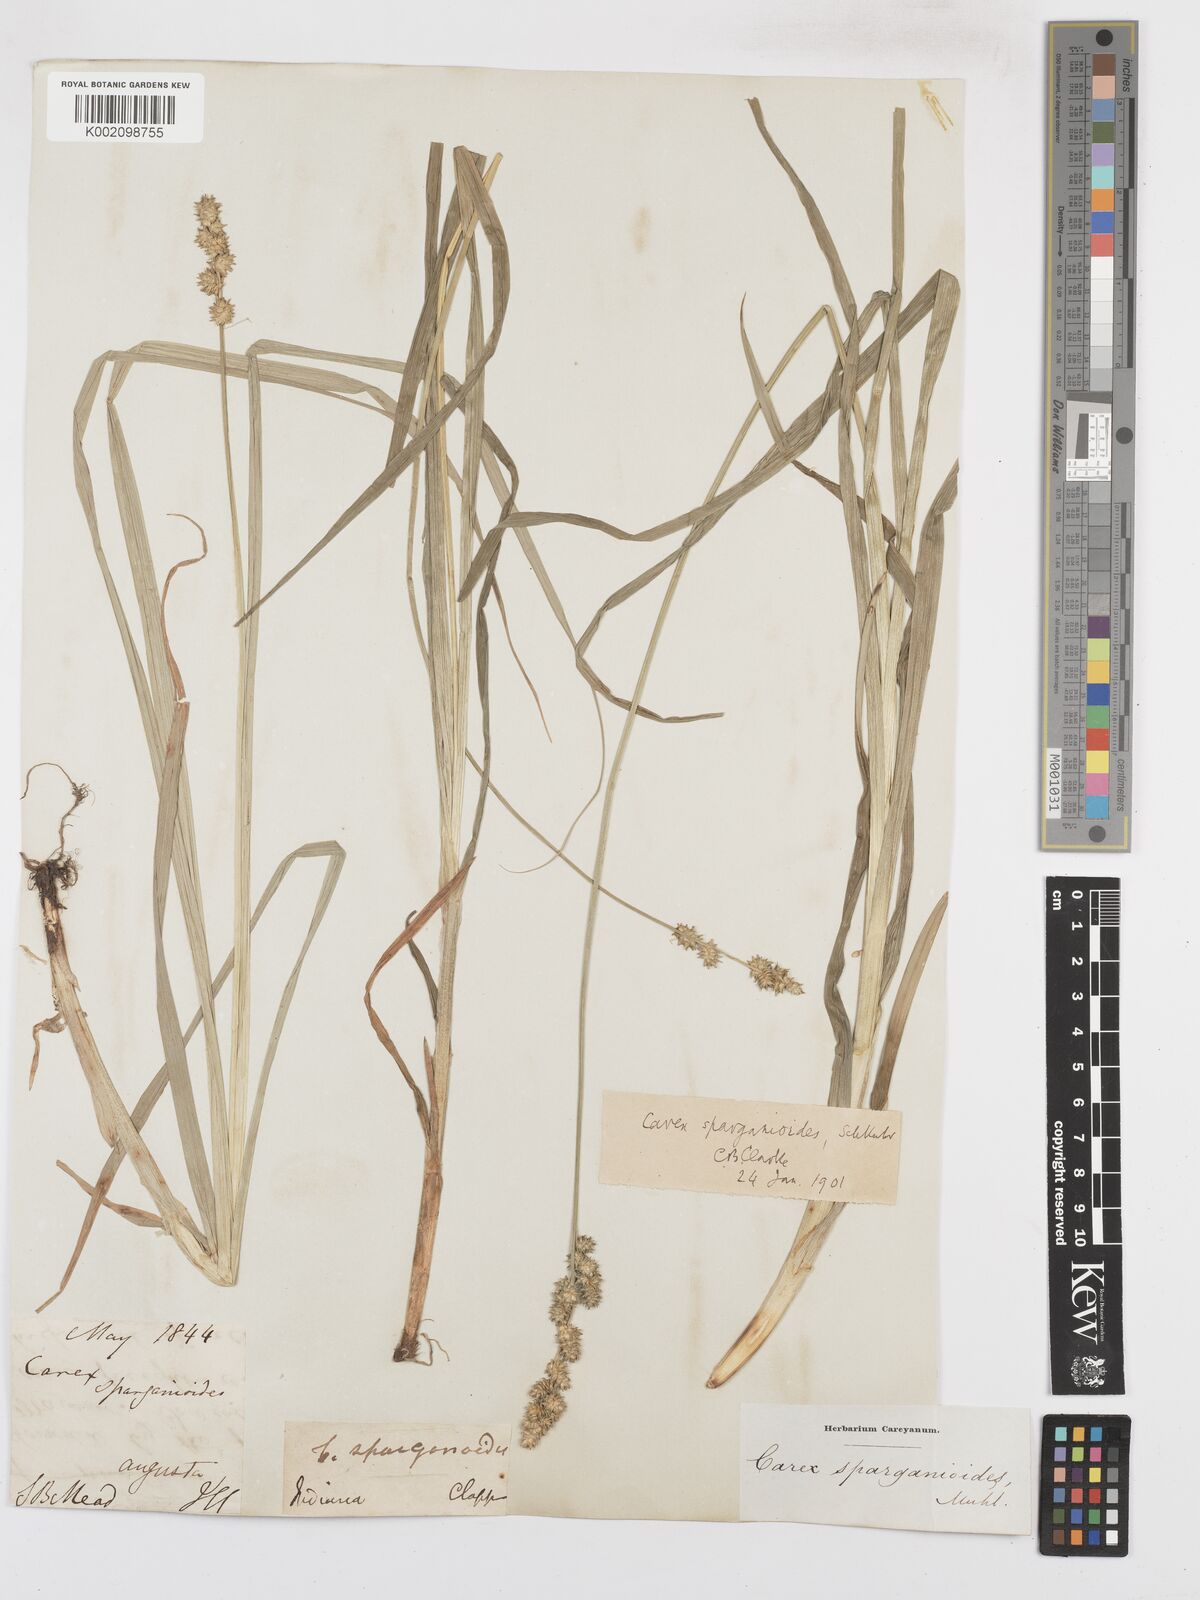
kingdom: Plantae
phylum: Tracheophyta
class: Liliopsida
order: Poales
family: Cyperaceae
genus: Carex
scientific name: Carex sparganioides
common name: Burreed sedge
